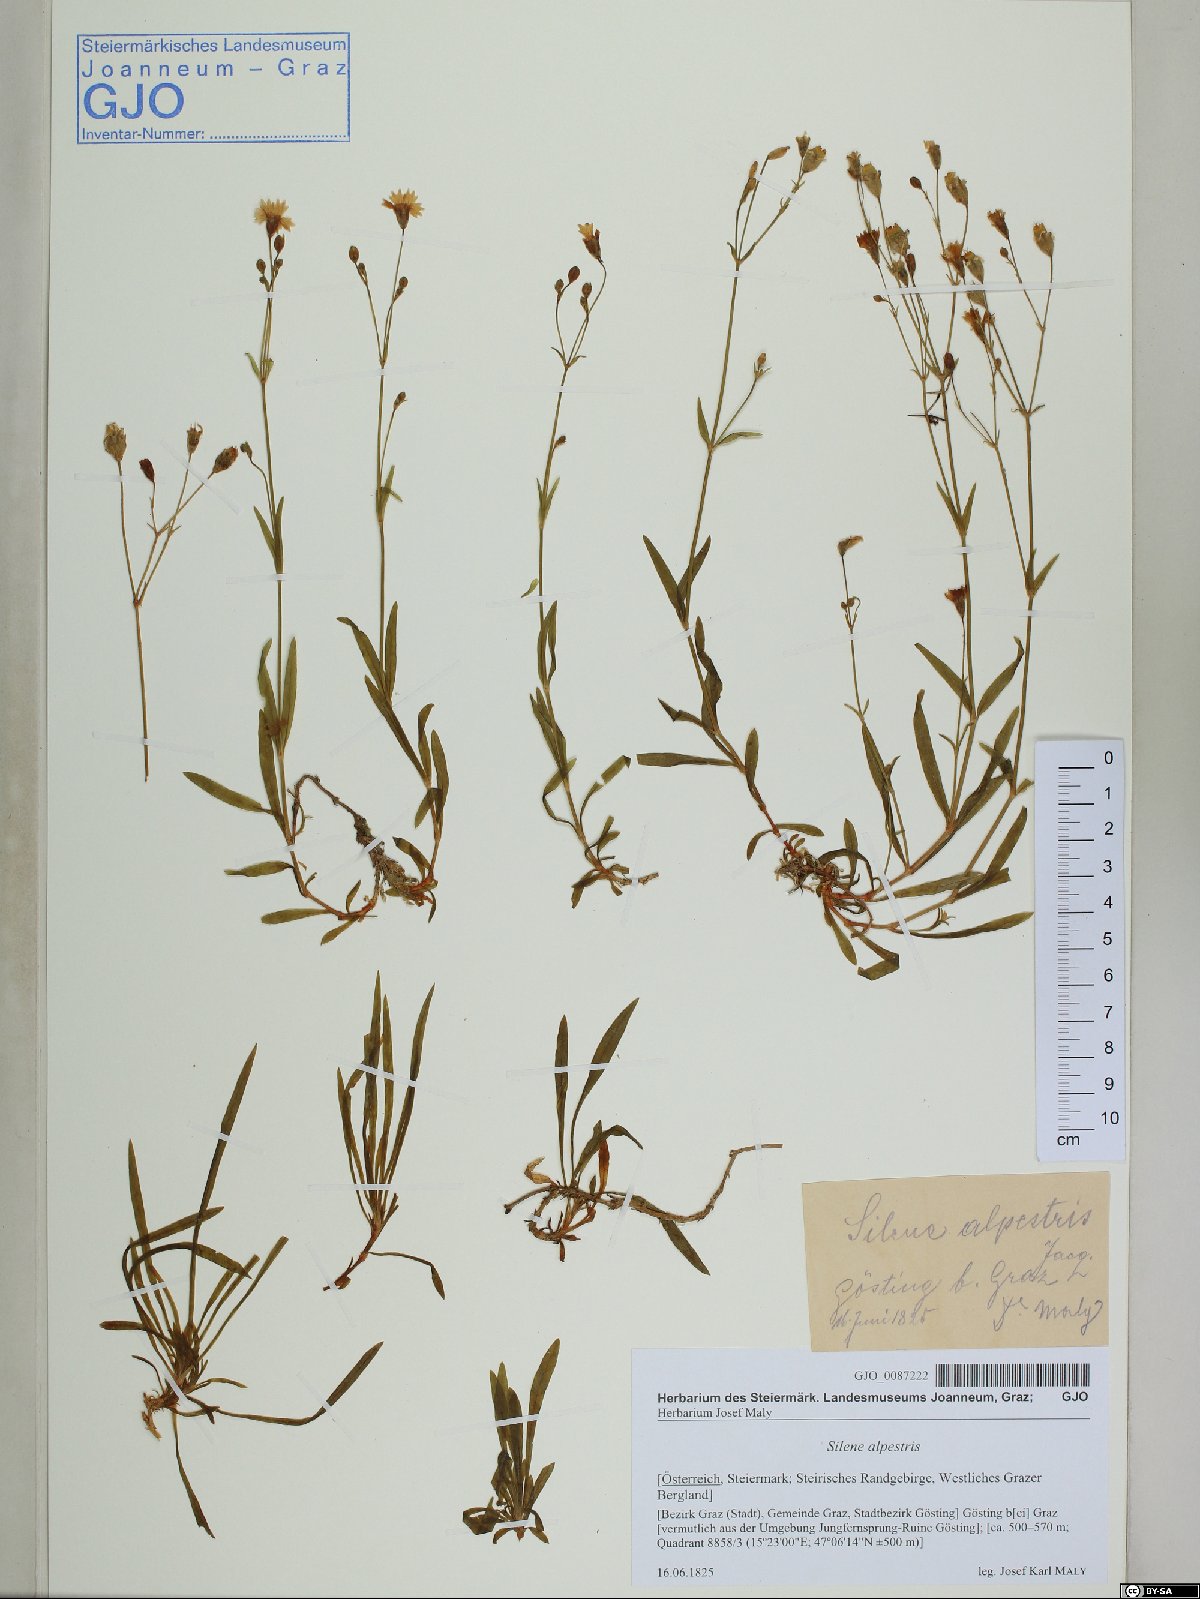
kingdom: Plantae
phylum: Tracheophyta
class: Magnoliopsida
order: Caryophyllales
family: Caryophyllaceae
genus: Heliosperma
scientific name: Heliosperma alpestre
